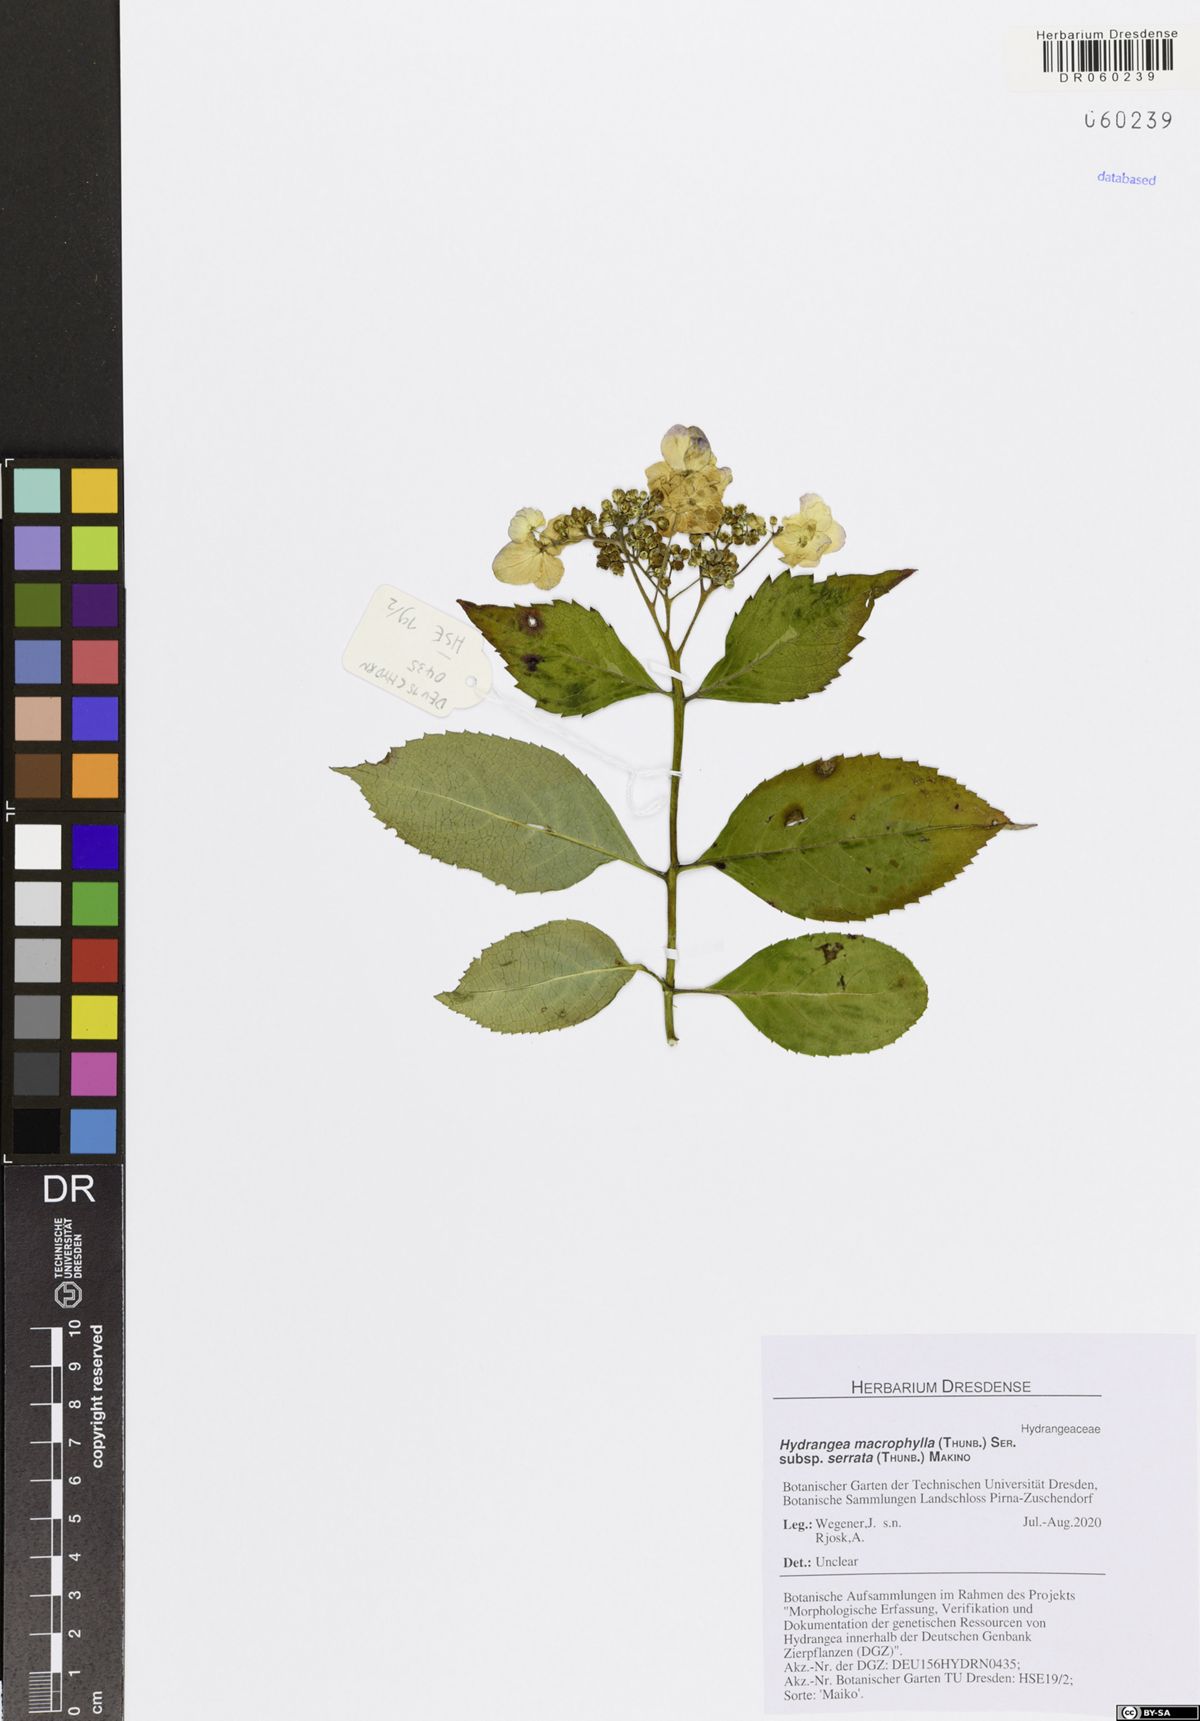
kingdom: Plantae
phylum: Tracheophyta
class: Magnoliopsida
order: Cornales
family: Hydrangeaceae
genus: Hydrangea
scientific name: Hydrangea serrata
